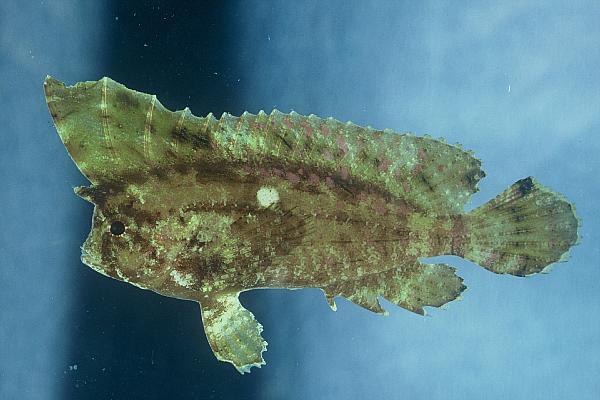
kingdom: Animalia
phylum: Chordata
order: Scorpaeniformes
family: Tetrarogidae
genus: Ablabys
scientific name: Ablabys taenianotus
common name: Cockatoo waspfish
